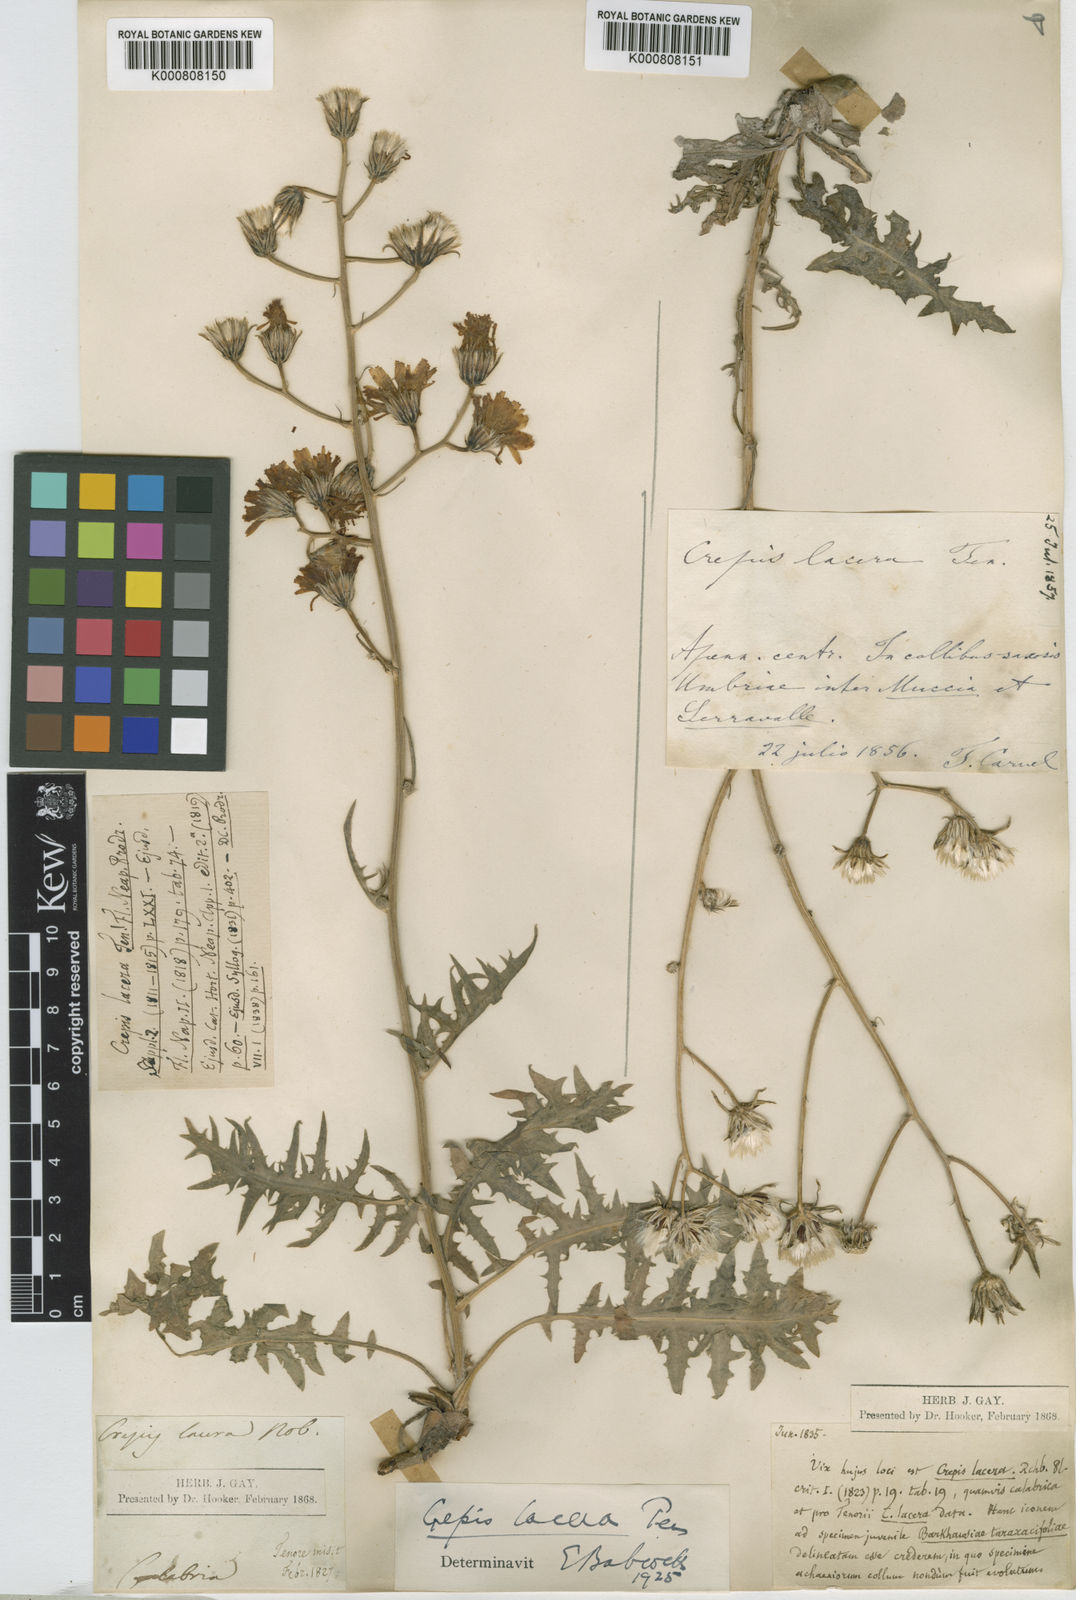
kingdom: Plantae
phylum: Tracheophyta
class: Magnoliopsida
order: Asterales
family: Asteraceae
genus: Crepis
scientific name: Crepis lacera
